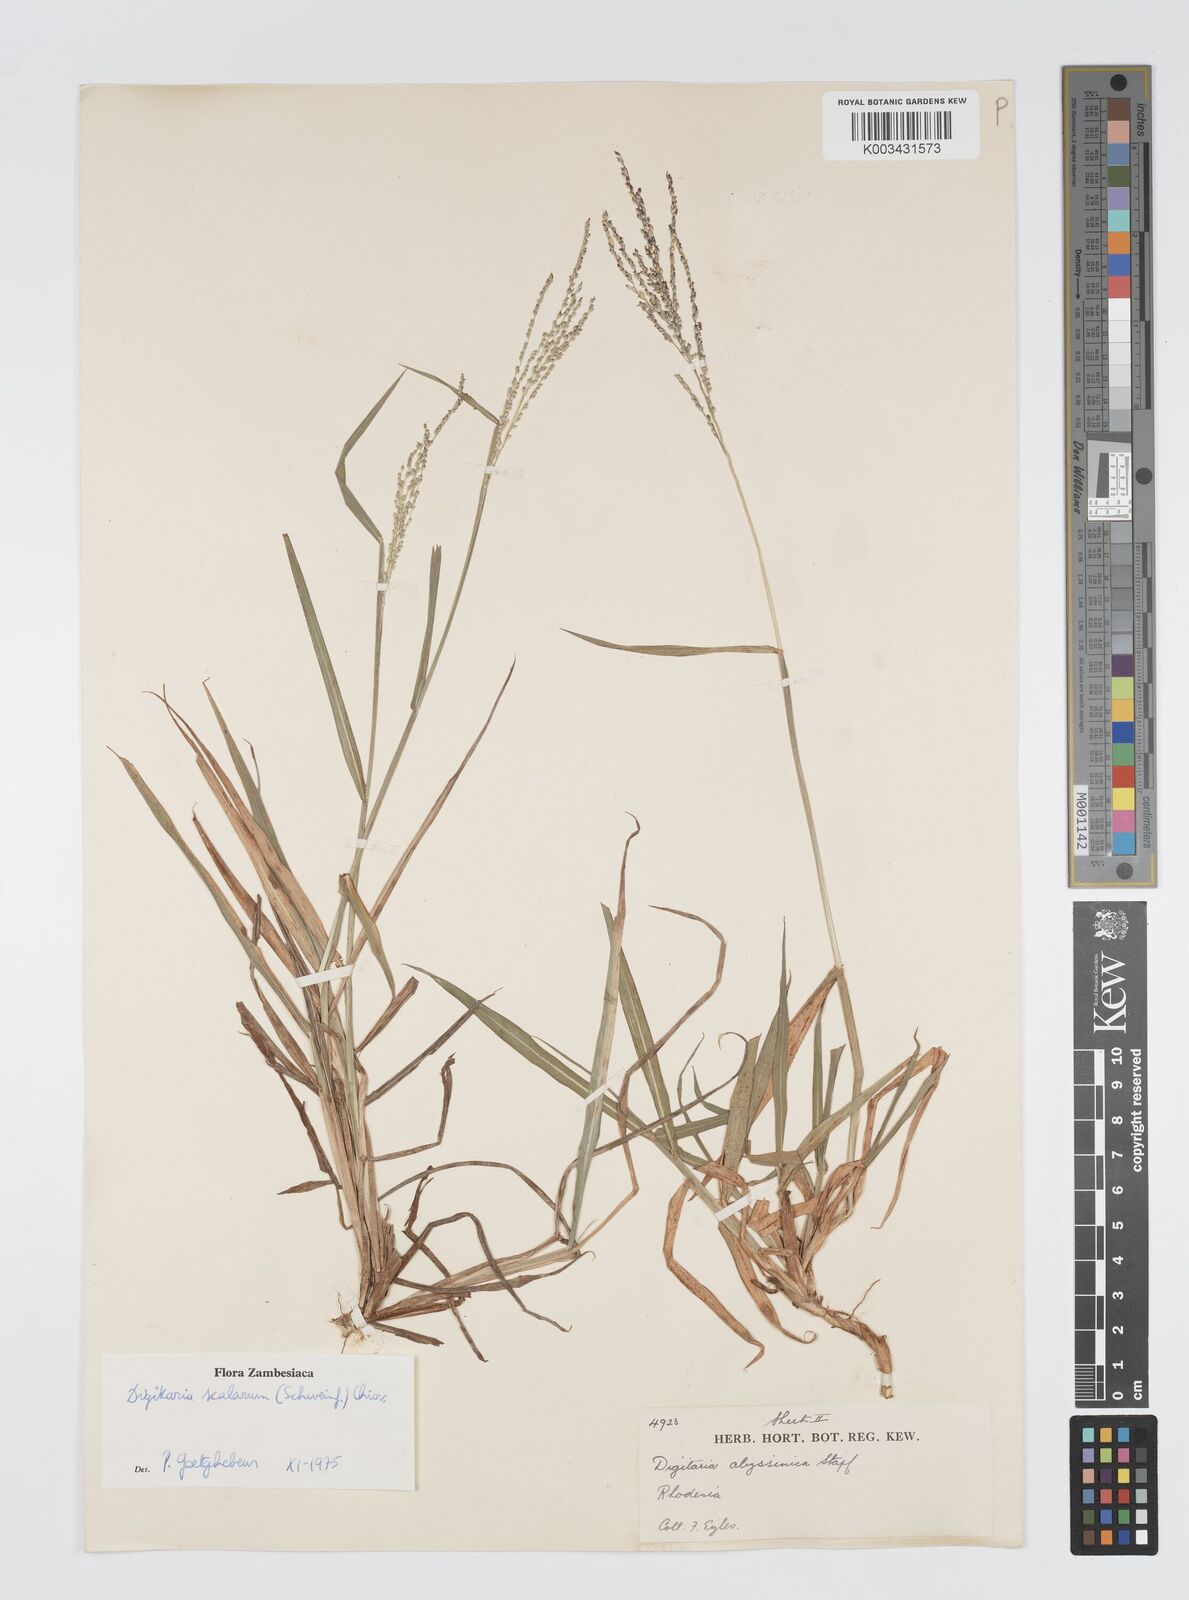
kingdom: Plantae
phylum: Tracheophyta
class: Liliopsida
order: Poales
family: Poaceae
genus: Digitaria
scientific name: Digitaria abyssinica
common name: African couchgrass
